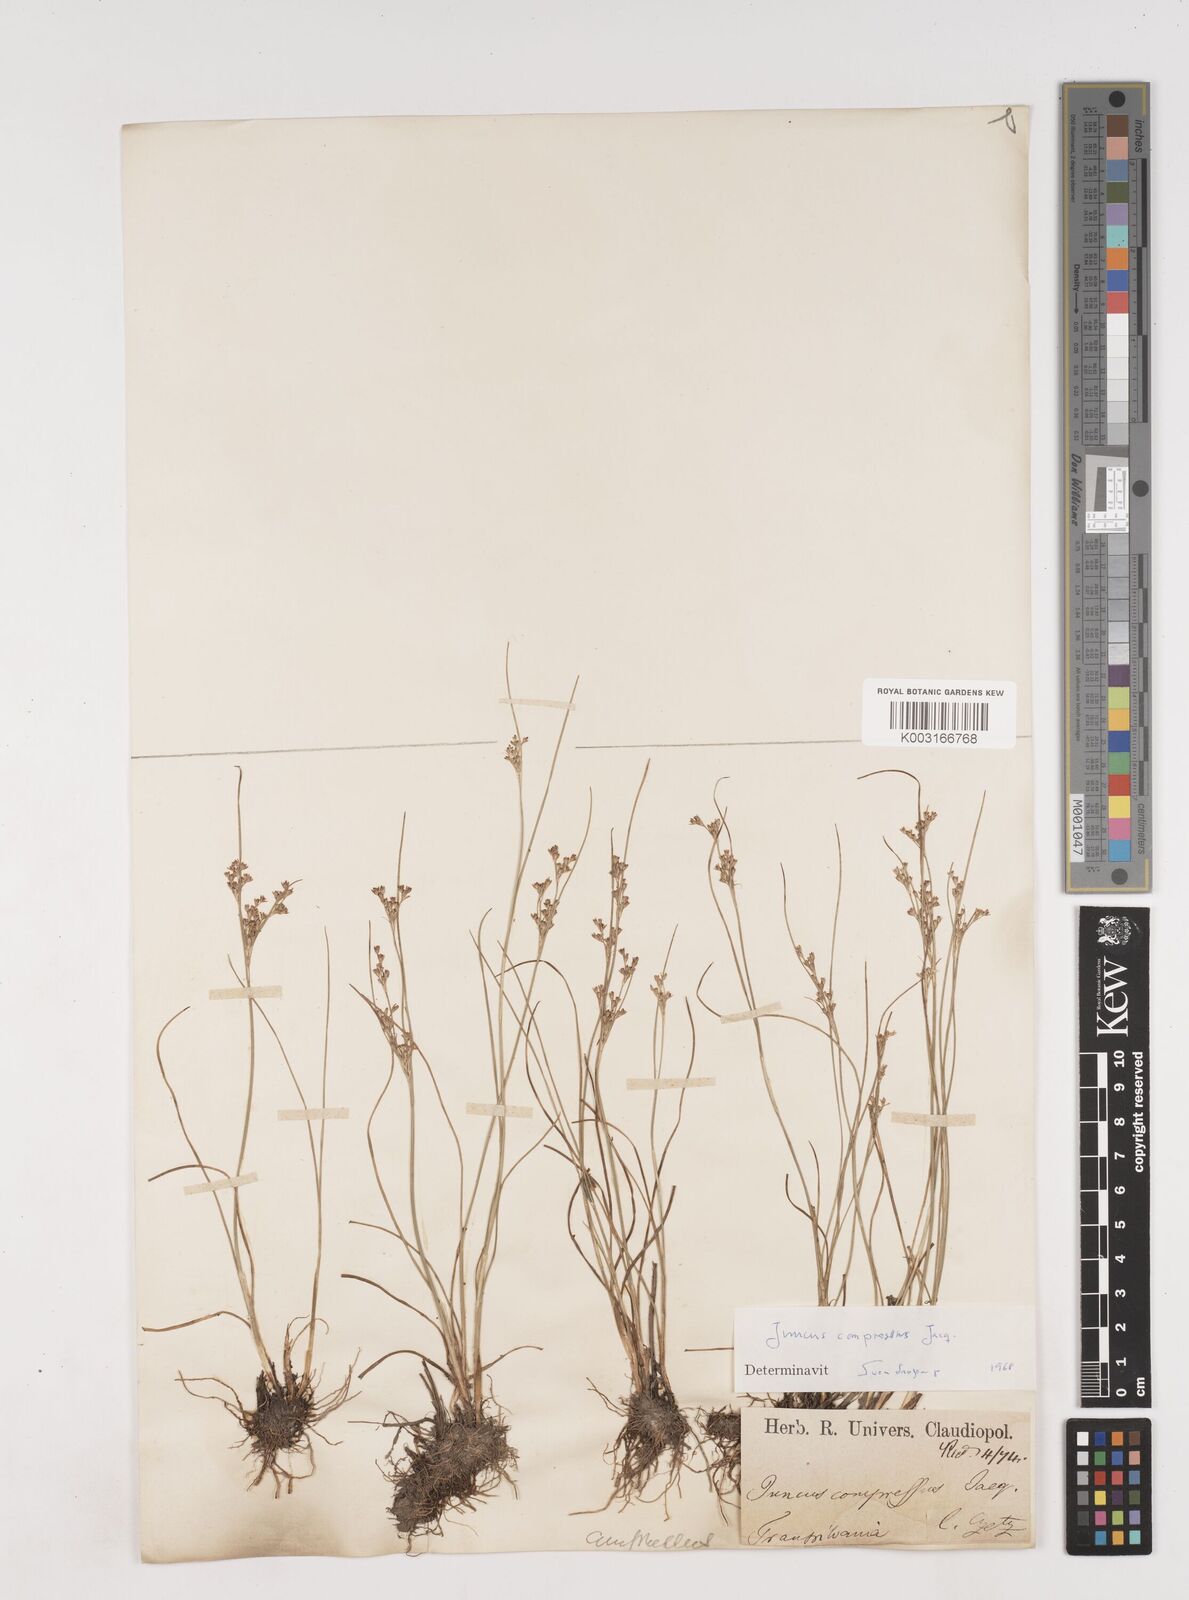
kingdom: Plantae
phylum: Tracheophyta
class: Liliopsida
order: Poales
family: Juncaceae
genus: Juncus
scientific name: Juncus
